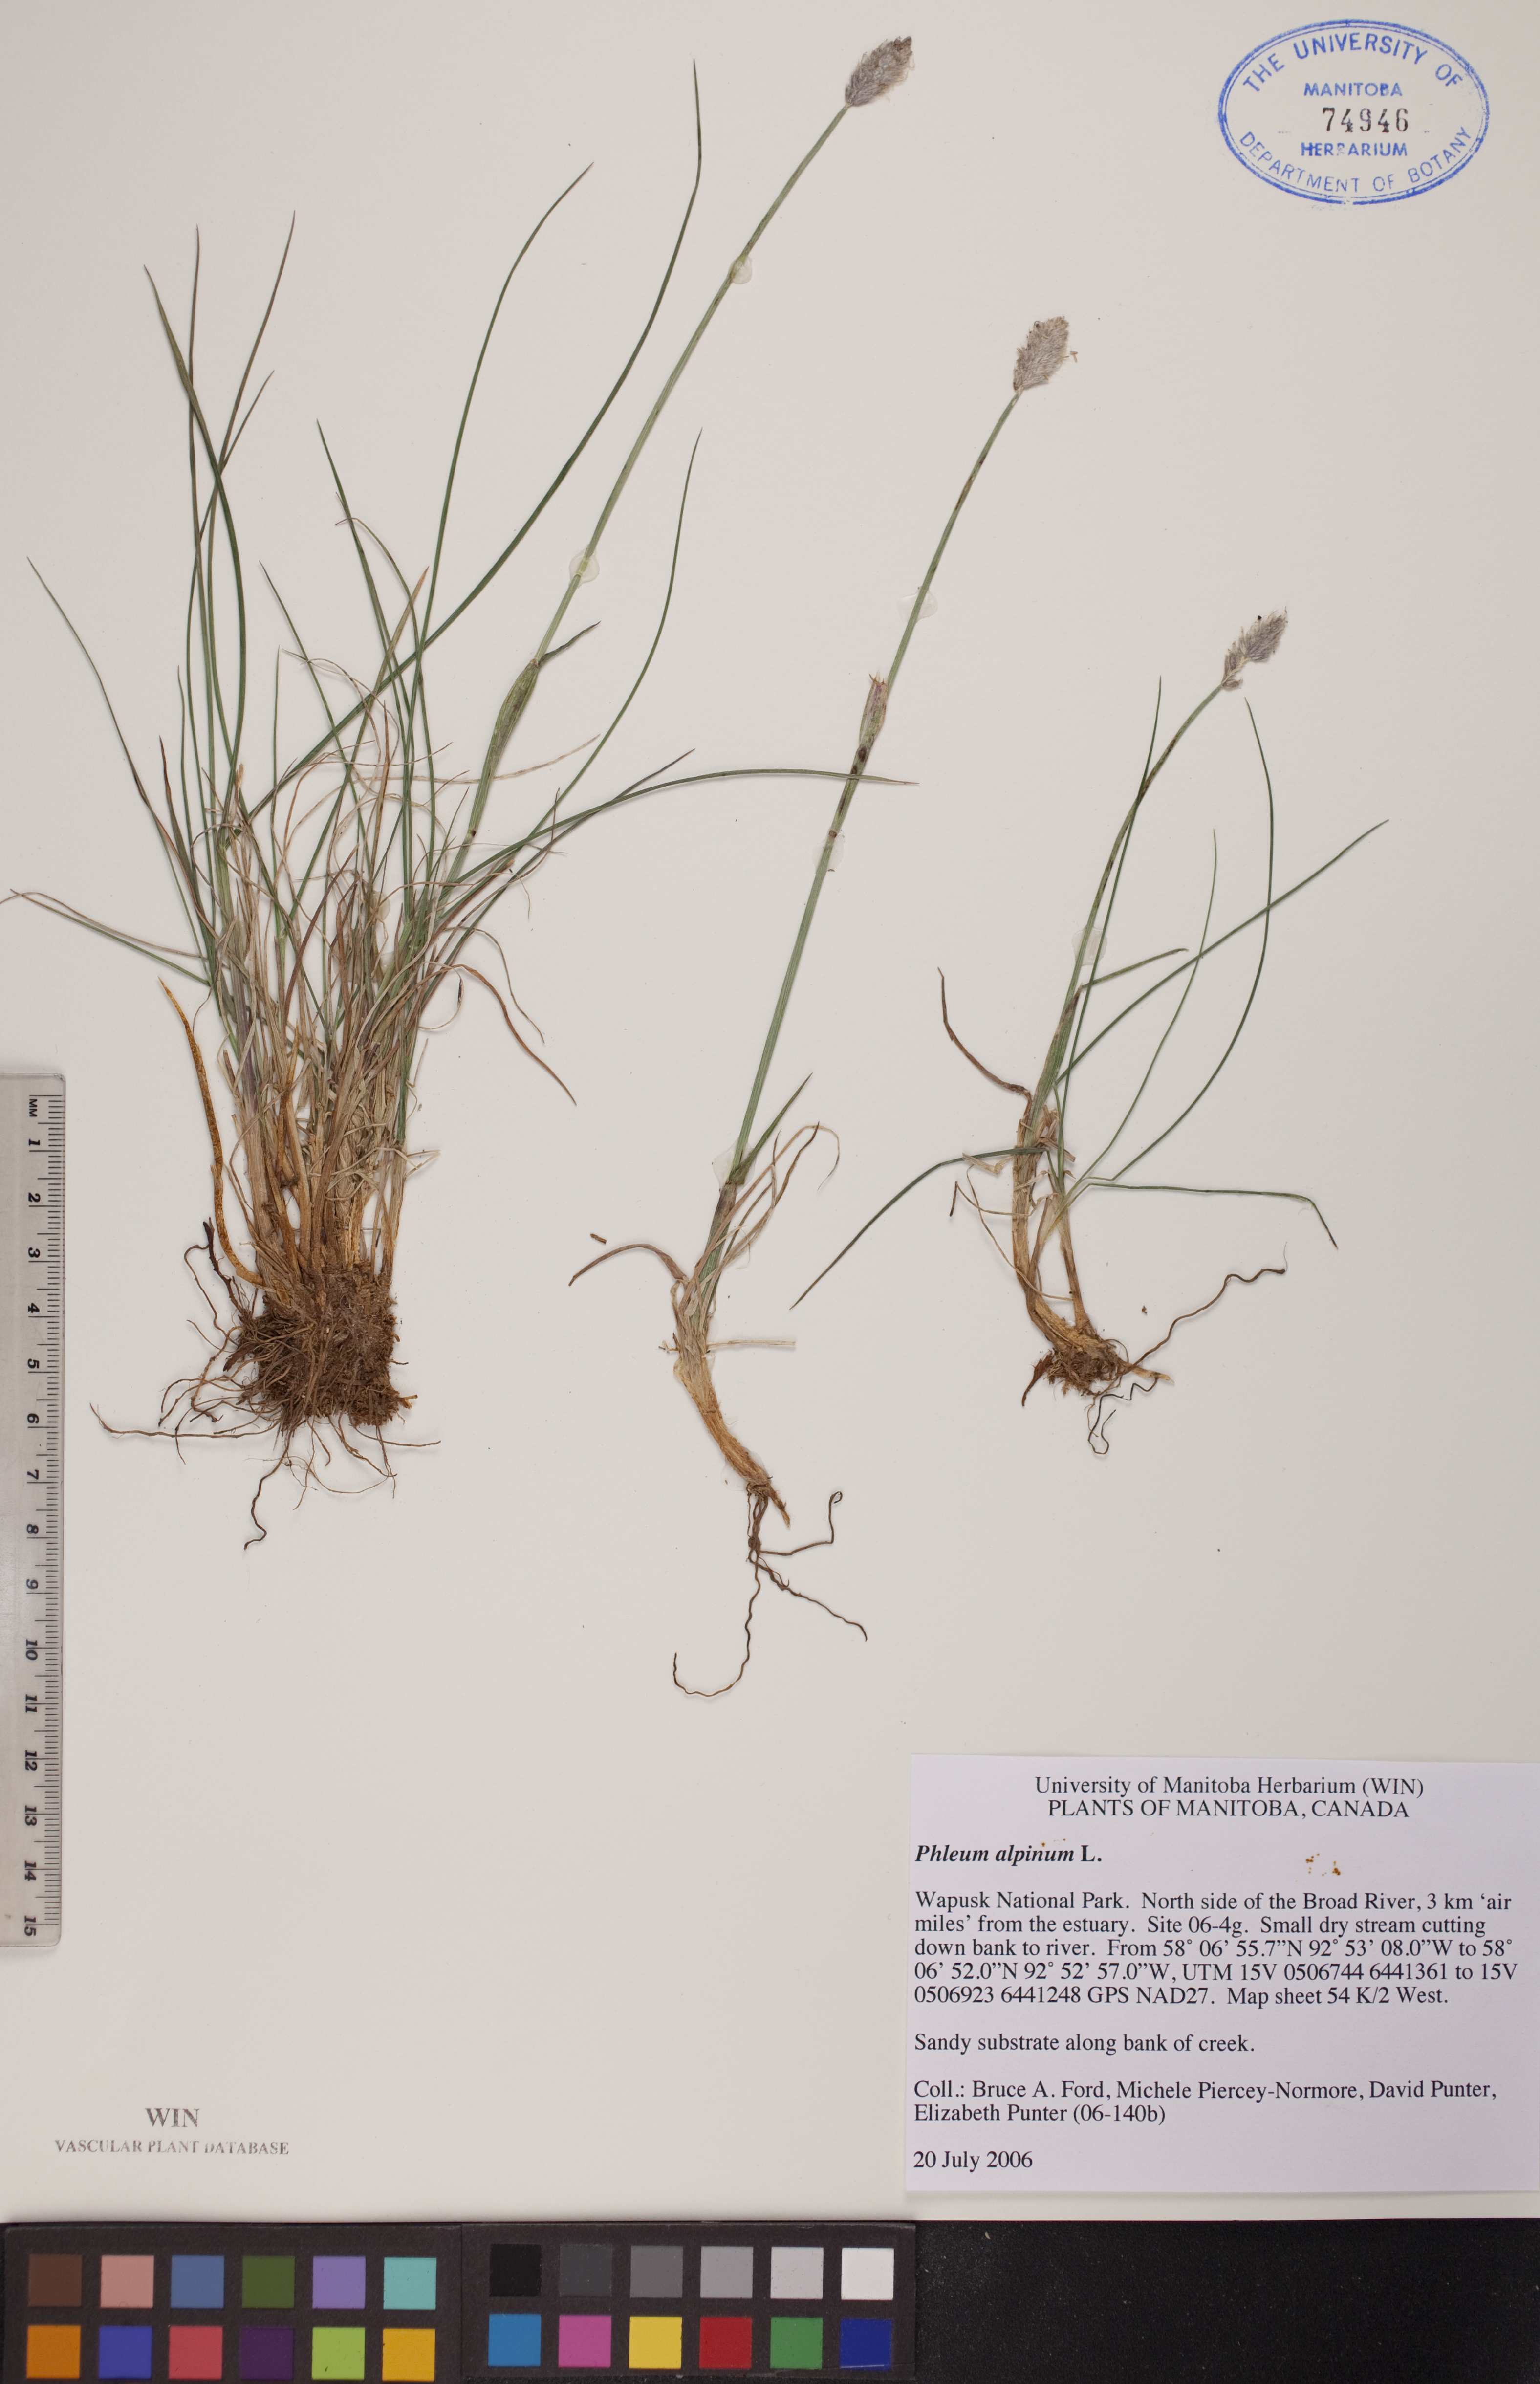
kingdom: Plantae
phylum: Tracheophyta
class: Liliopsida
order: Poales
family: Poaceae
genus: Phleum
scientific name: Phleum alpinum
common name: Alpine cat's-tail
